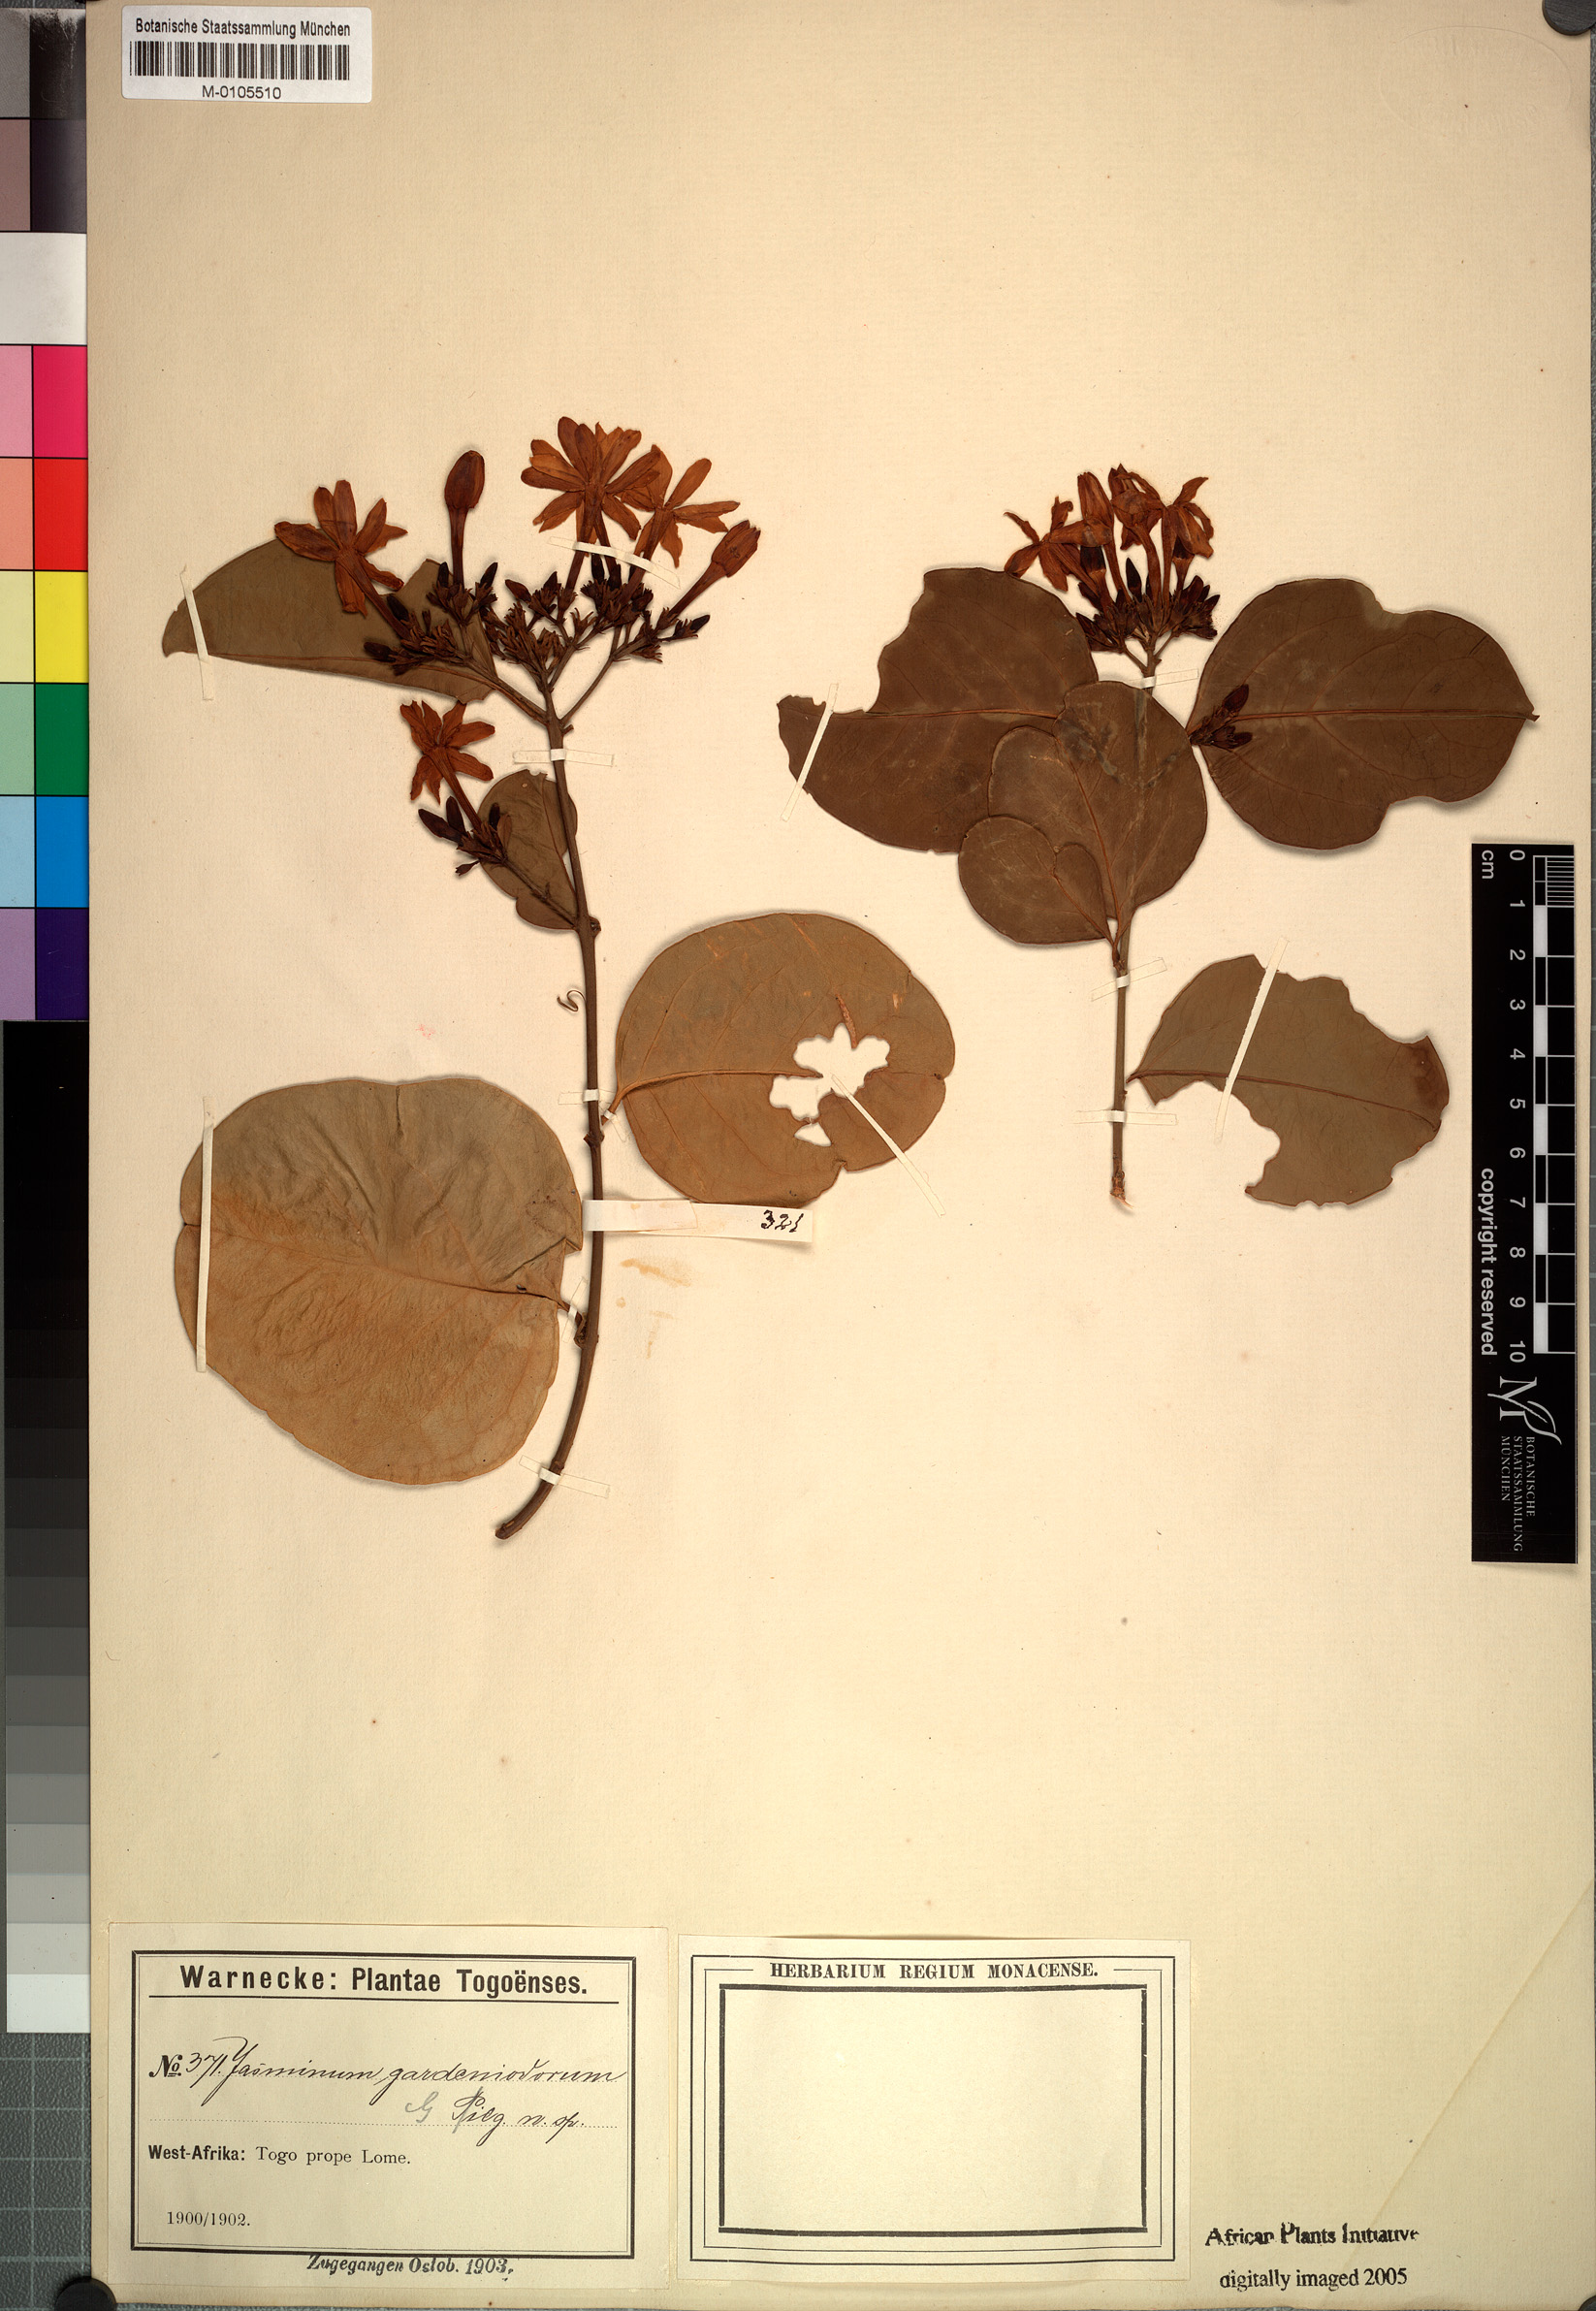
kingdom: Plantae
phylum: Tracheophyta
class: Magnoliopsida
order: Lamiales
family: Oleaceae
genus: Jasminum
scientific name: Jasminum dichotomum
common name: Gold coast jasmine
